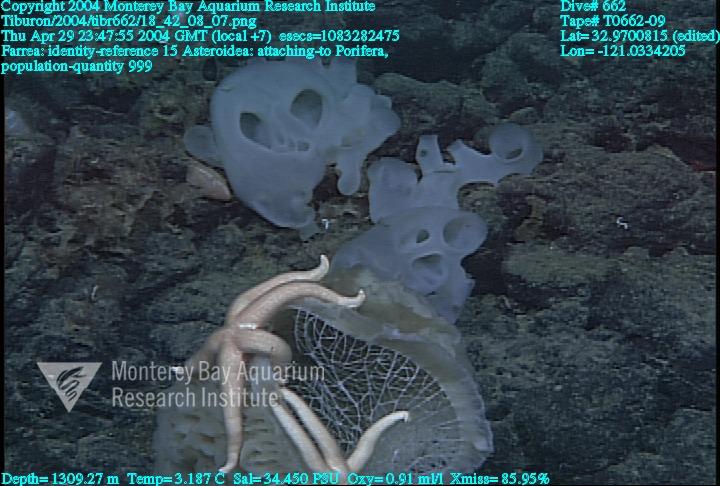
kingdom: Animalia
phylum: Porifera
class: Hexactinellida
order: Sceptrulophora
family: Farreidae
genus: Farrea
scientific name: Farrea
